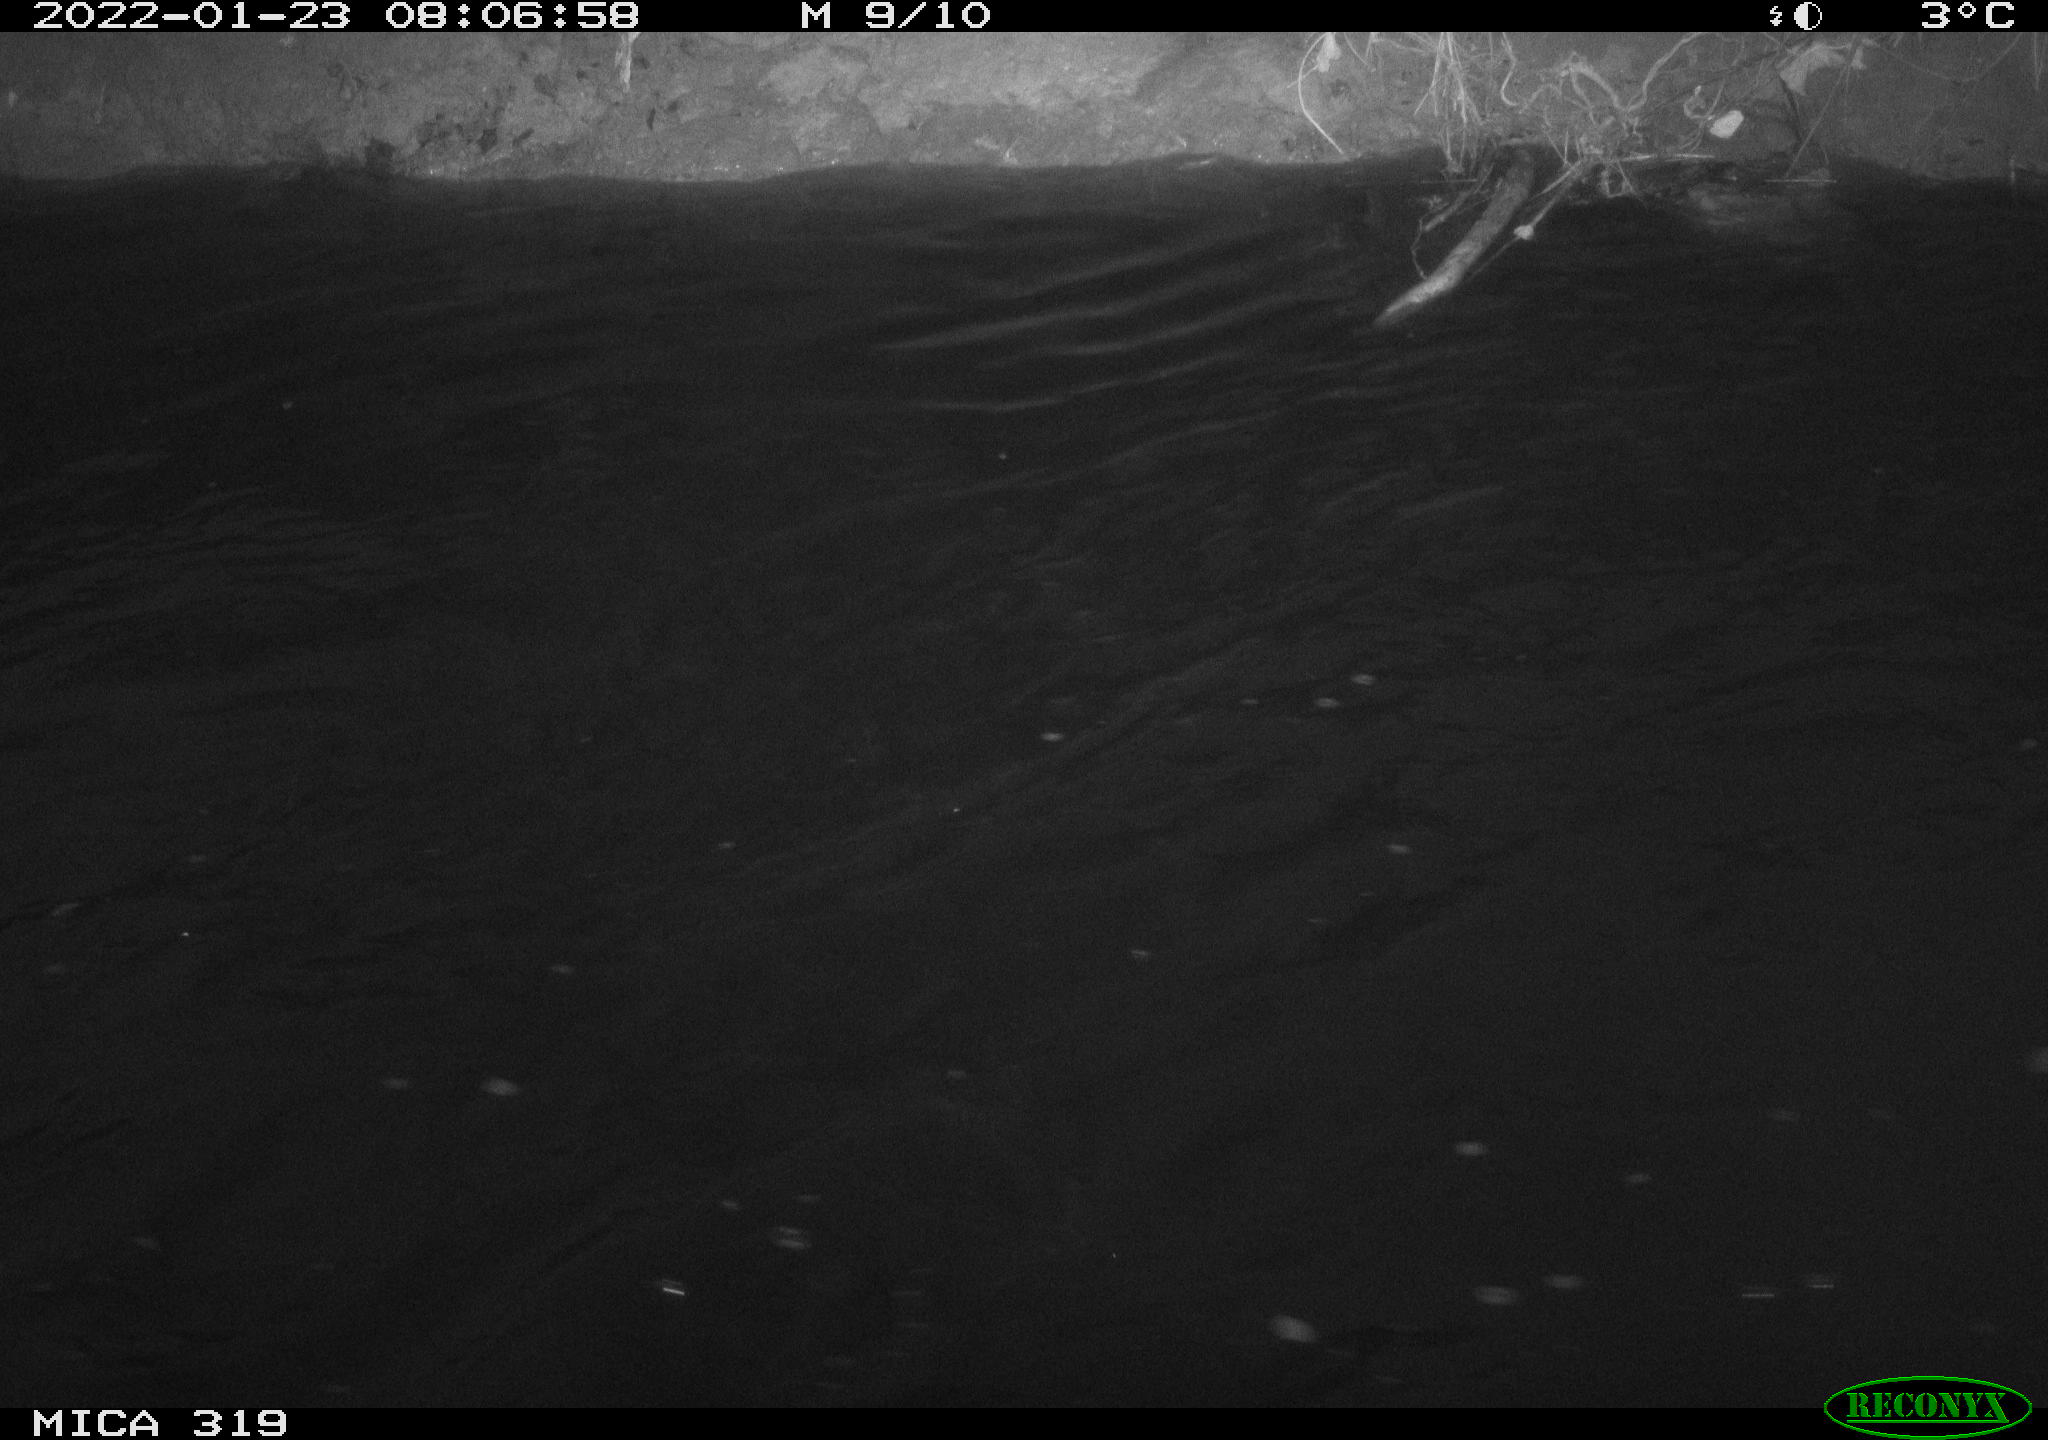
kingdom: Animalia
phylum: Chordata
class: Aves
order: Anseriformes
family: Anatidae
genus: Anas
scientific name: Anas platyrhynchos
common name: Mallard
